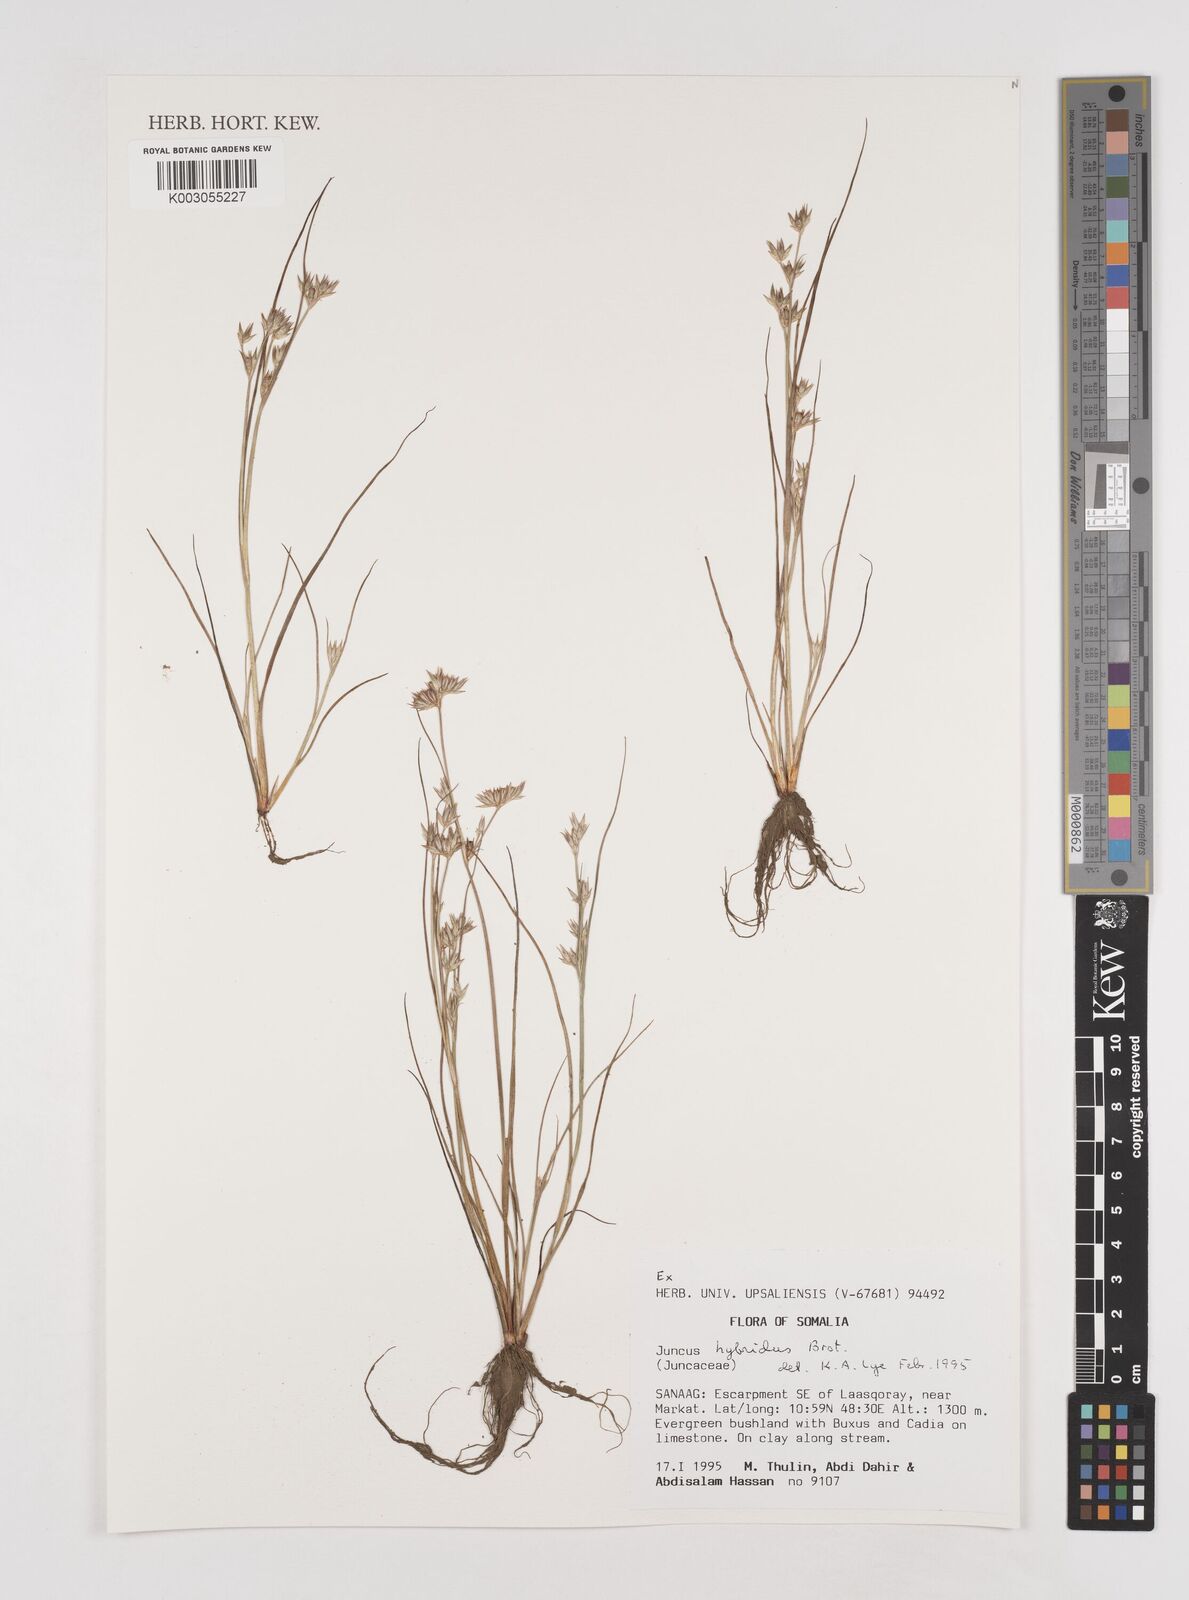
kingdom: Plantae
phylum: Tracheophyta
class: Liliopsida
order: Poales
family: Juncaceae
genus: Juncus
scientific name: Juncus hybridus
